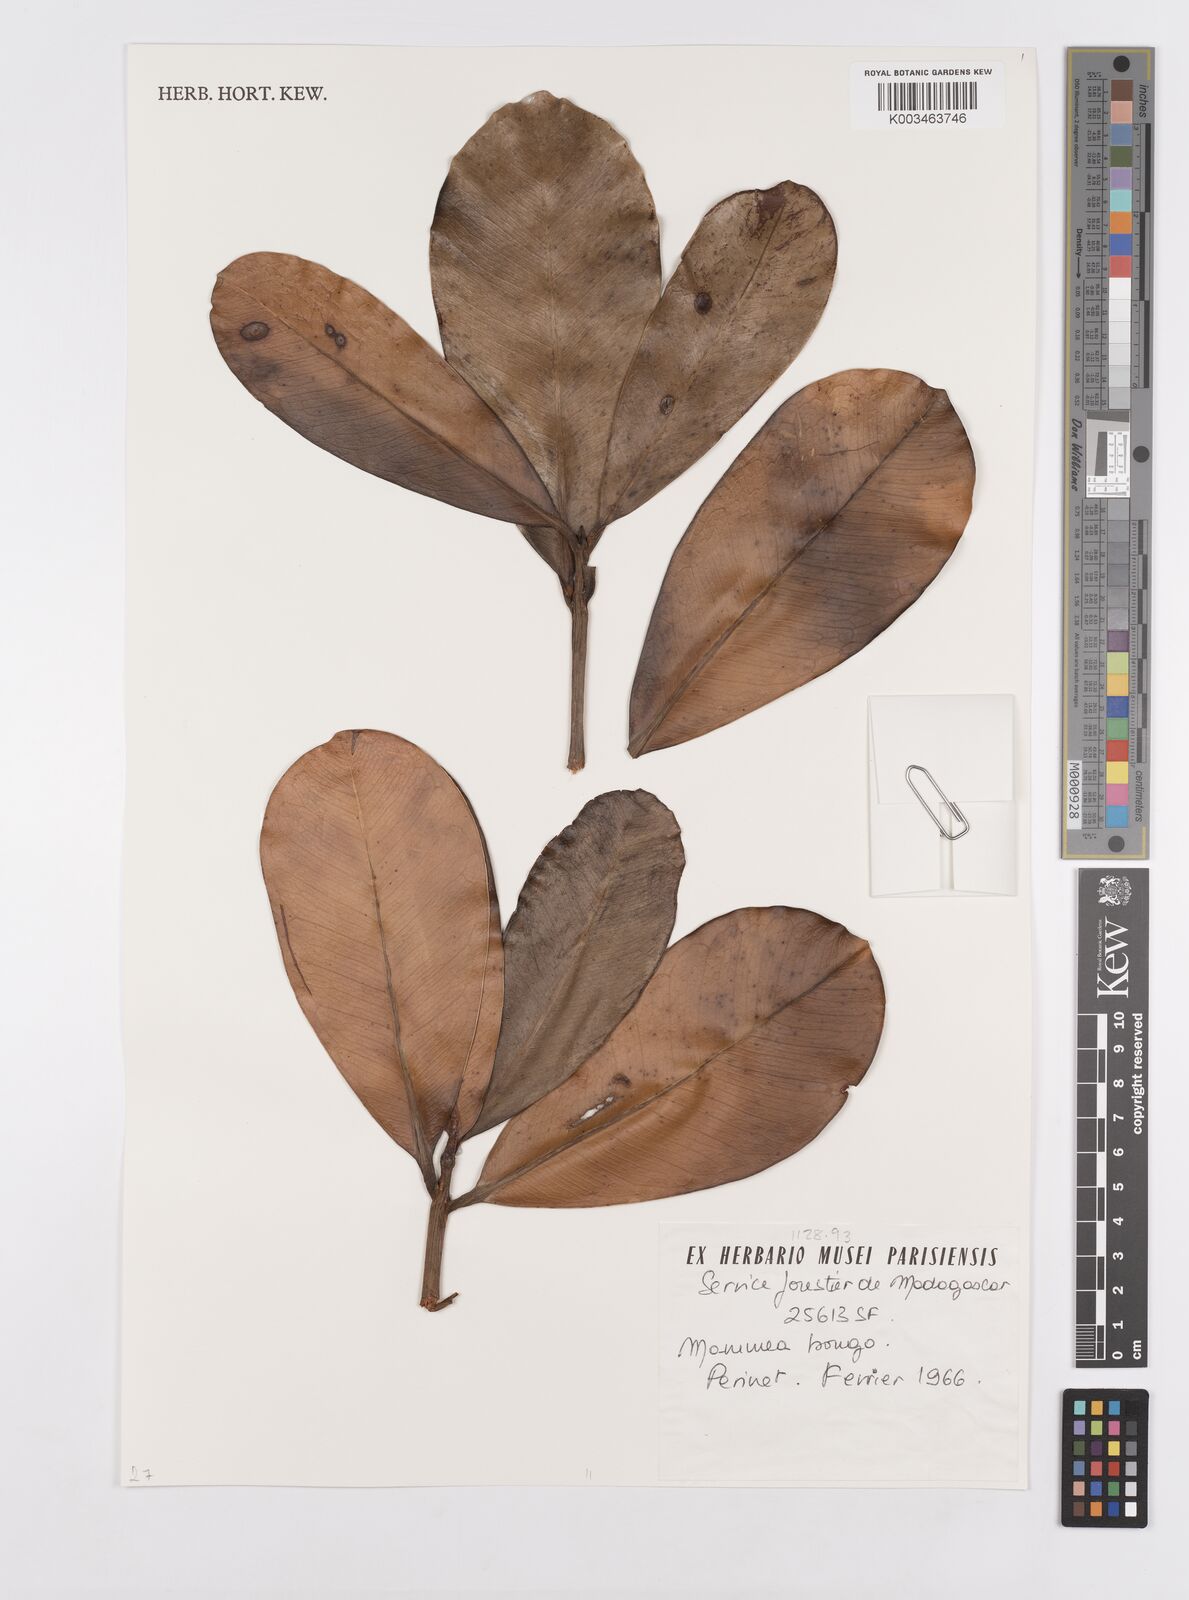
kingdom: Plantae
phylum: Tracheophyta
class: Magnoliopsida
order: Malpighiales
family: Calophyllaceae
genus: Mammea
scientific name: Mammea bongo
